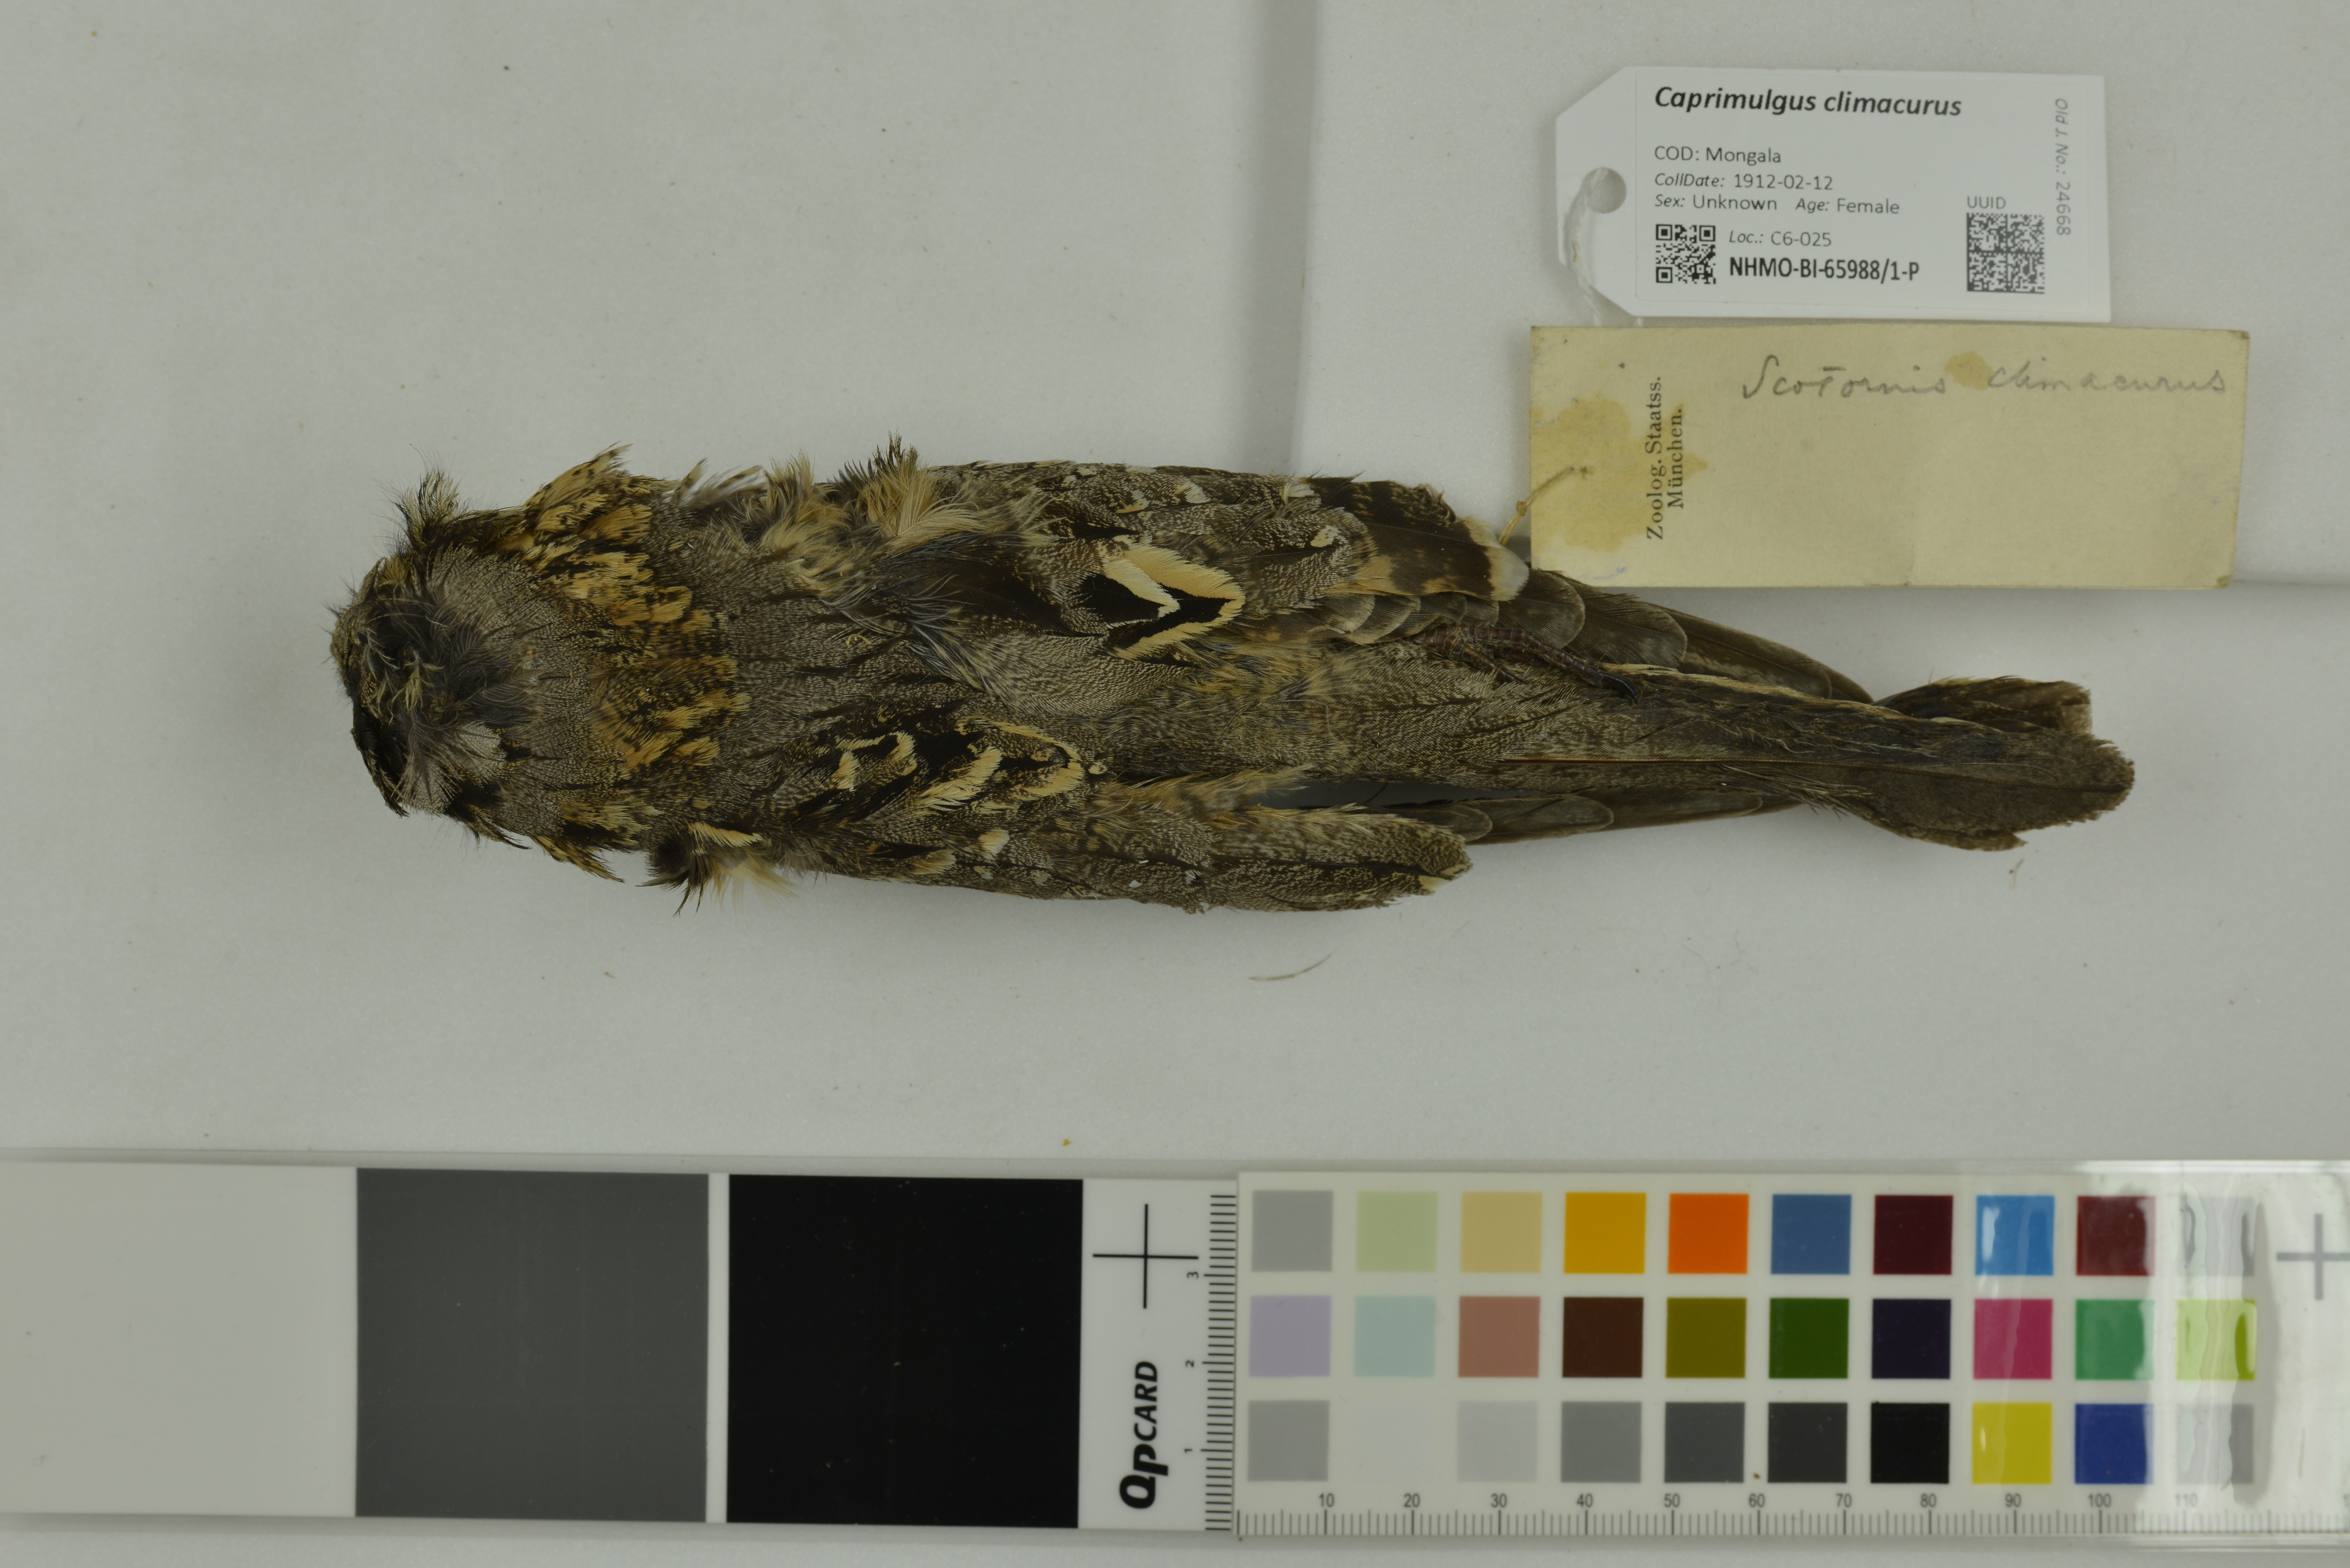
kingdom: Animalia
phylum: Chordata
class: Aves
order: Caprimulgiformes
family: Caprimulgidae
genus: Caprimulgus
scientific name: Caprimulgus climacurus
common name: Long-tailed nightjar
